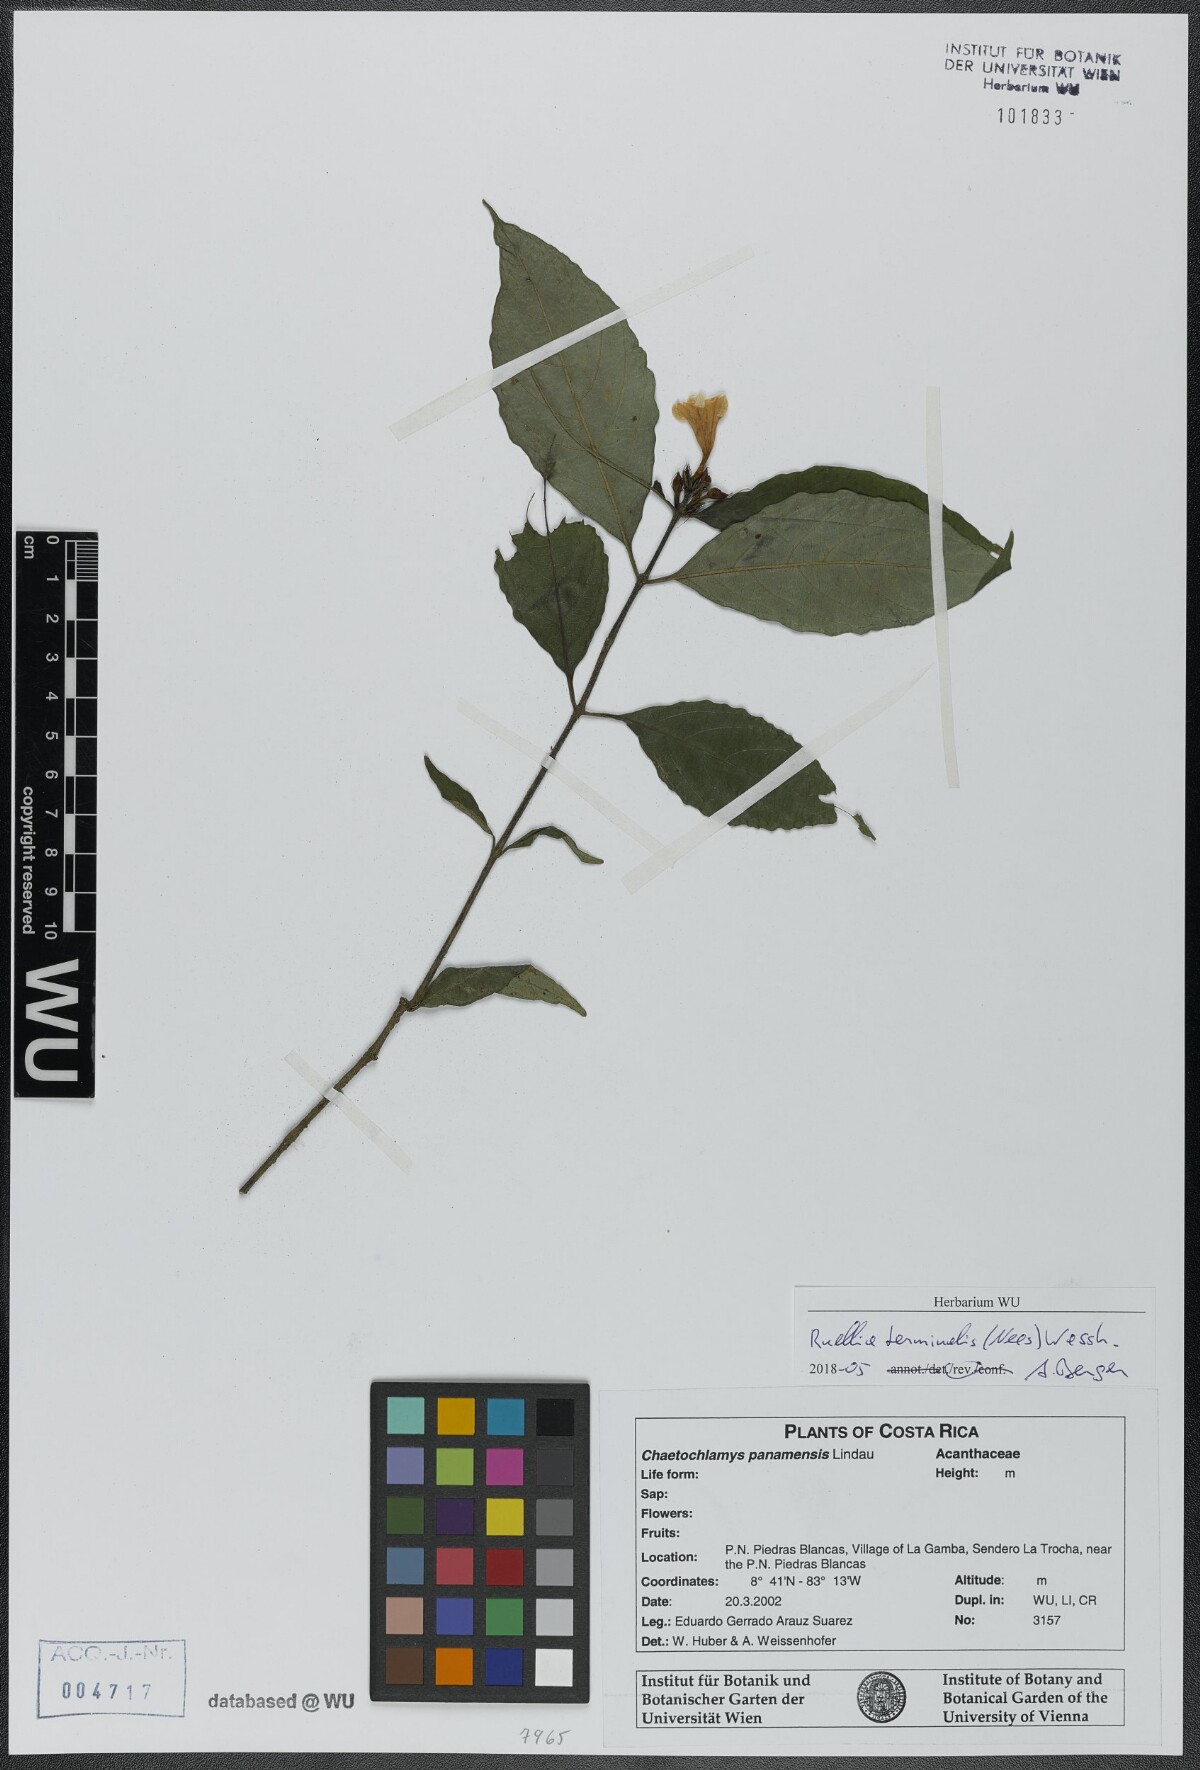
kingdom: Plantae
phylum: Tracheophyta
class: Magnoliopsida
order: Lamiales
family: Acanthaceae
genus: Ruellia
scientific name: Ruellia terminalis
